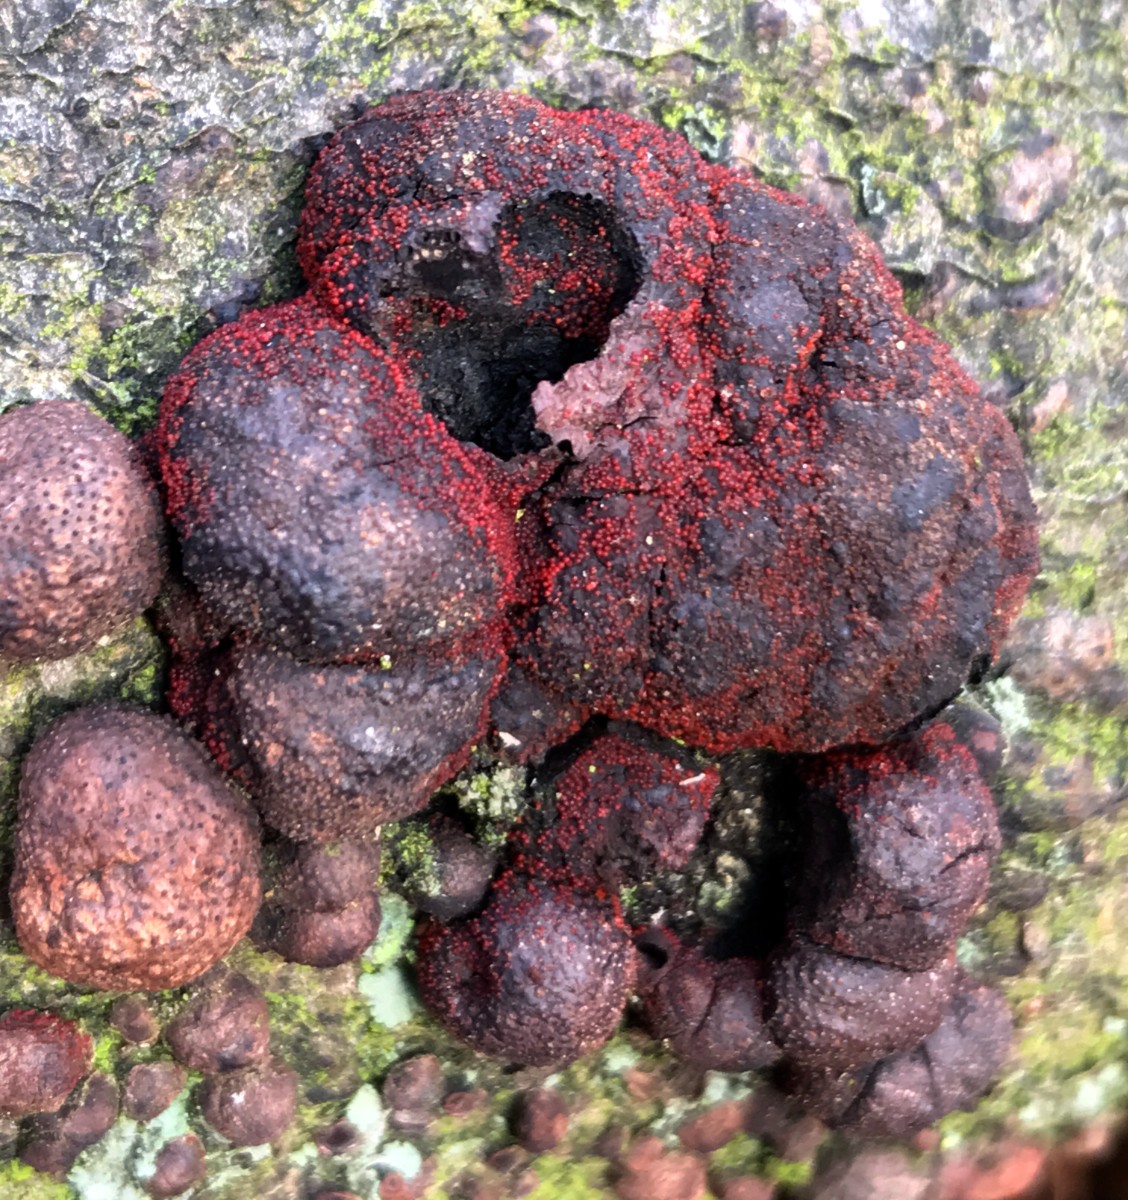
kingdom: Fungi
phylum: Ascomycota
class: Sordariomycetes
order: Hypocreales
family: Nectriaceae
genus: Cosmospora
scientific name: Cosmospora arxii
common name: kuljordbær-cinnobersvamp
